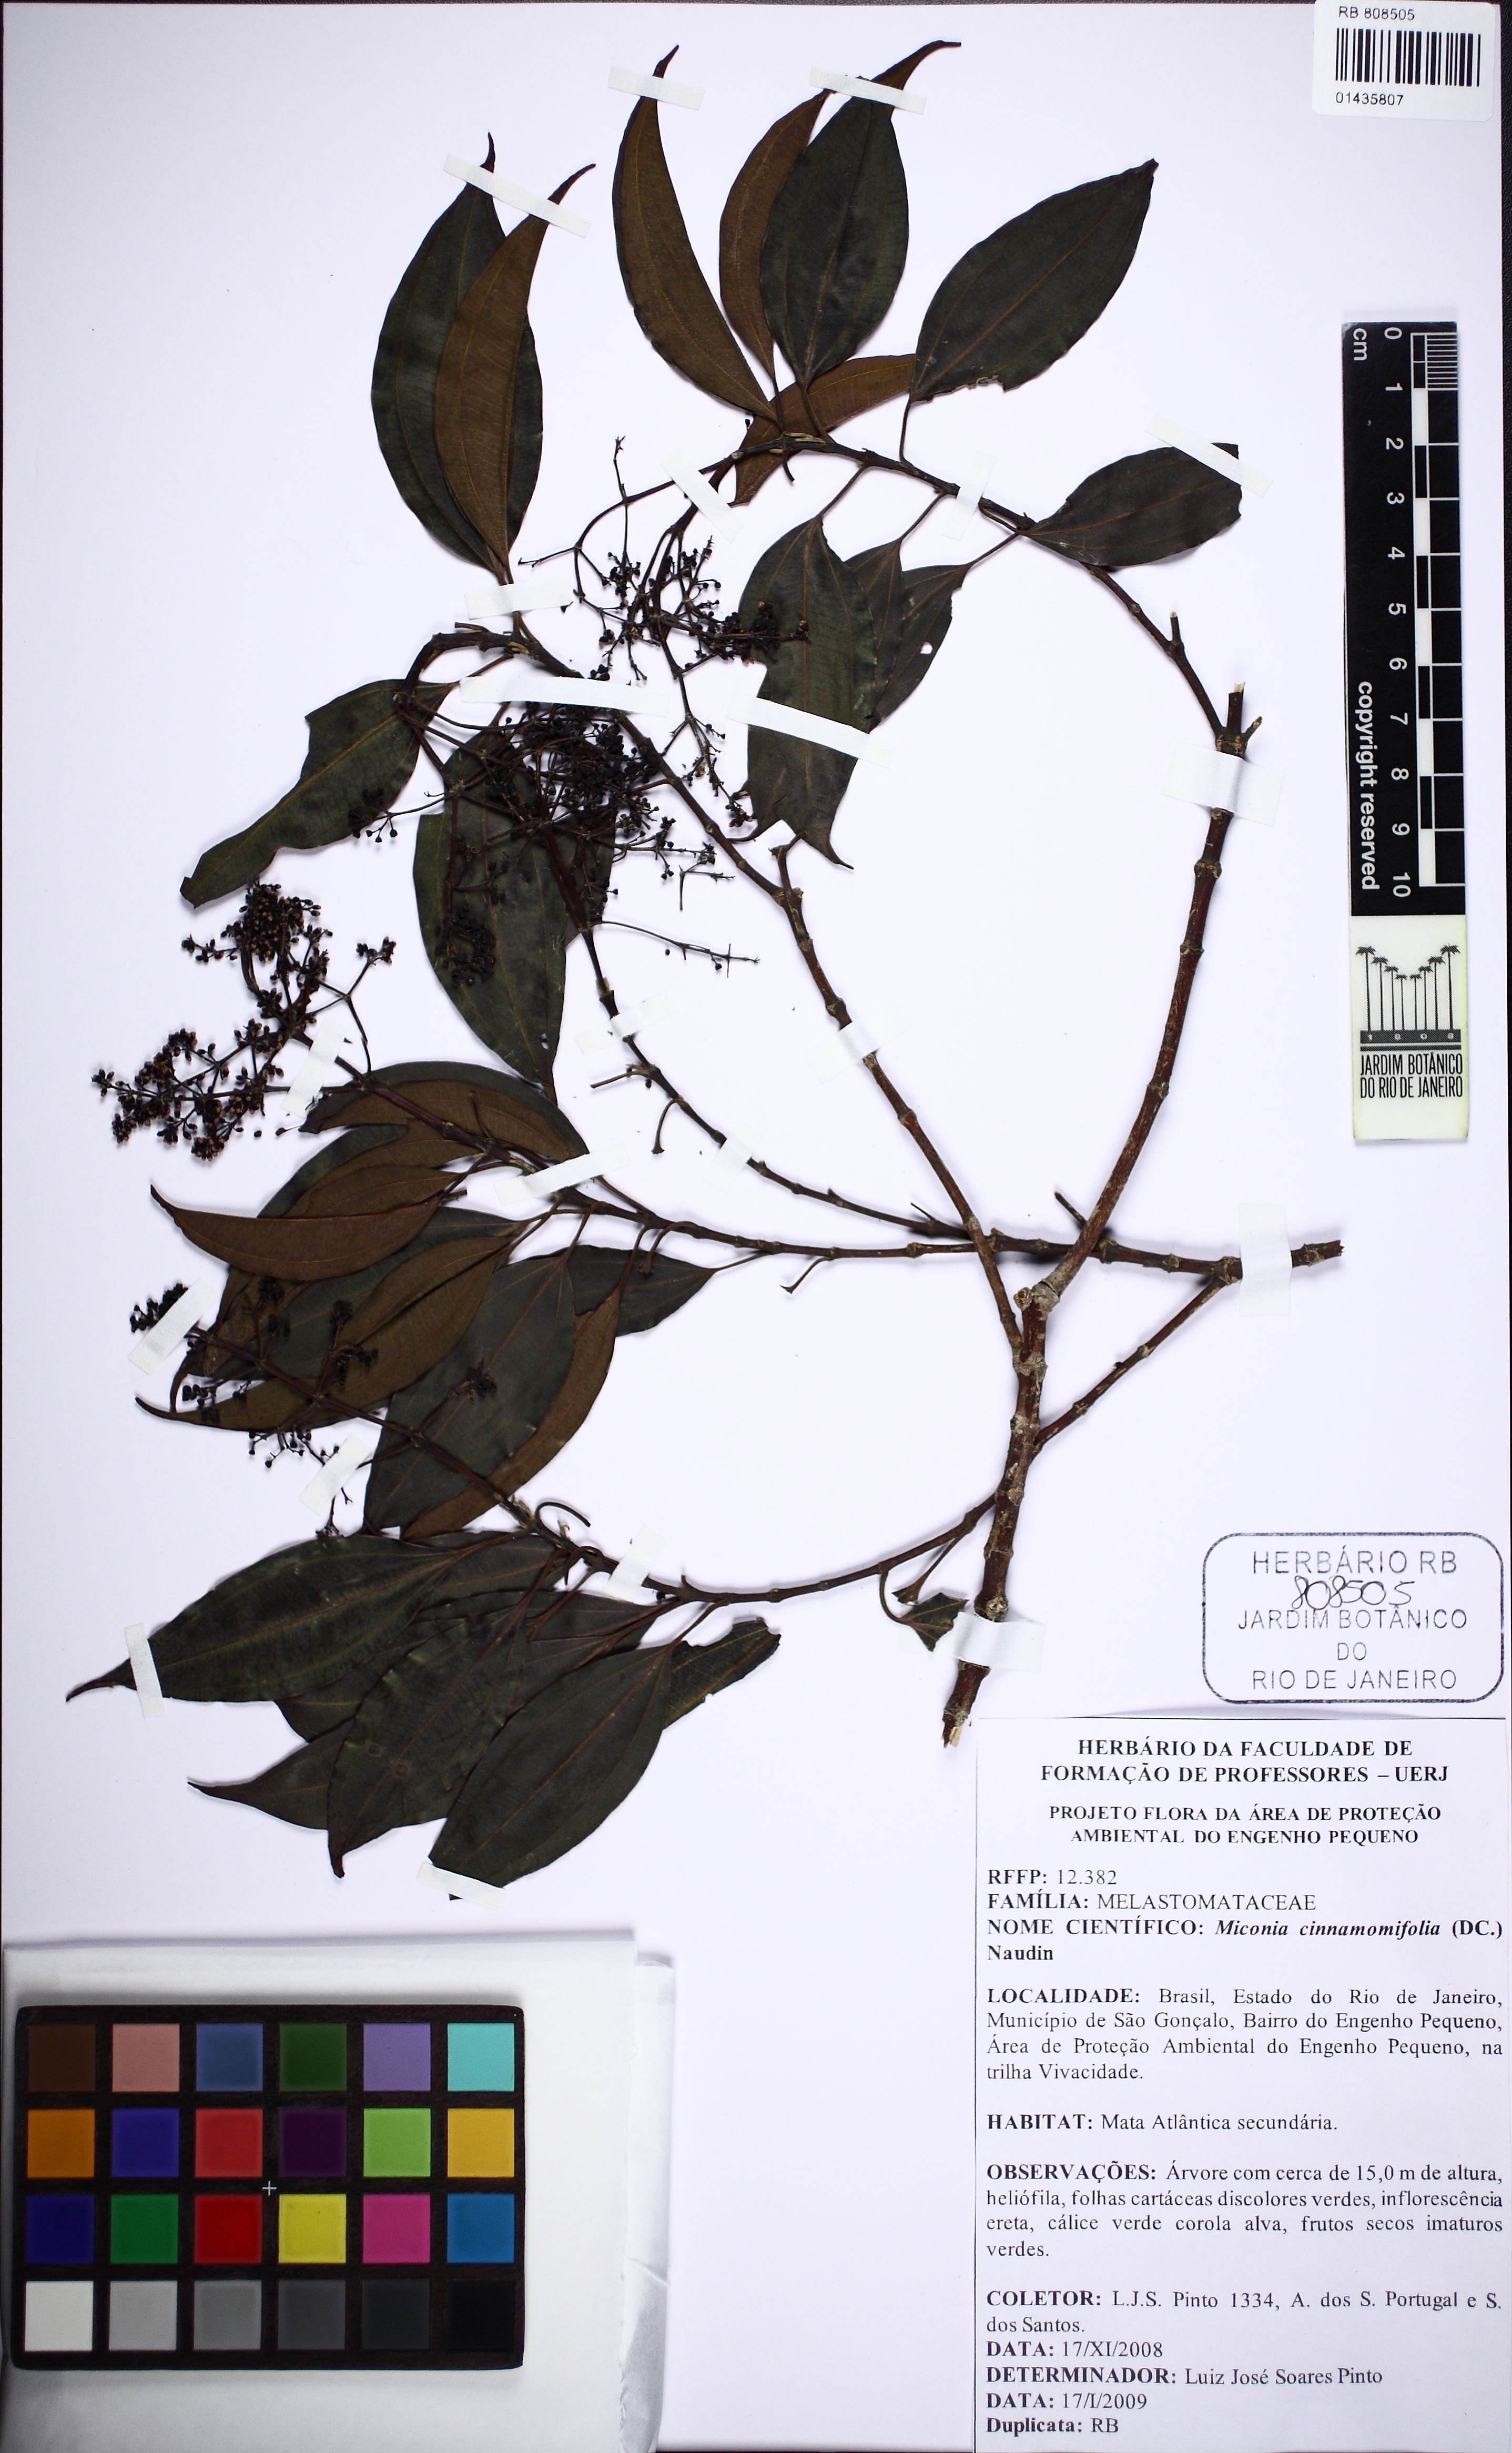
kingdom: Plantae
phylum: Tracheophyta
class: Magnoliopsida
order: Myrtales
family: Melastomataceae
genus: Miconia
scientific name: Miconia cinnamomifolia
